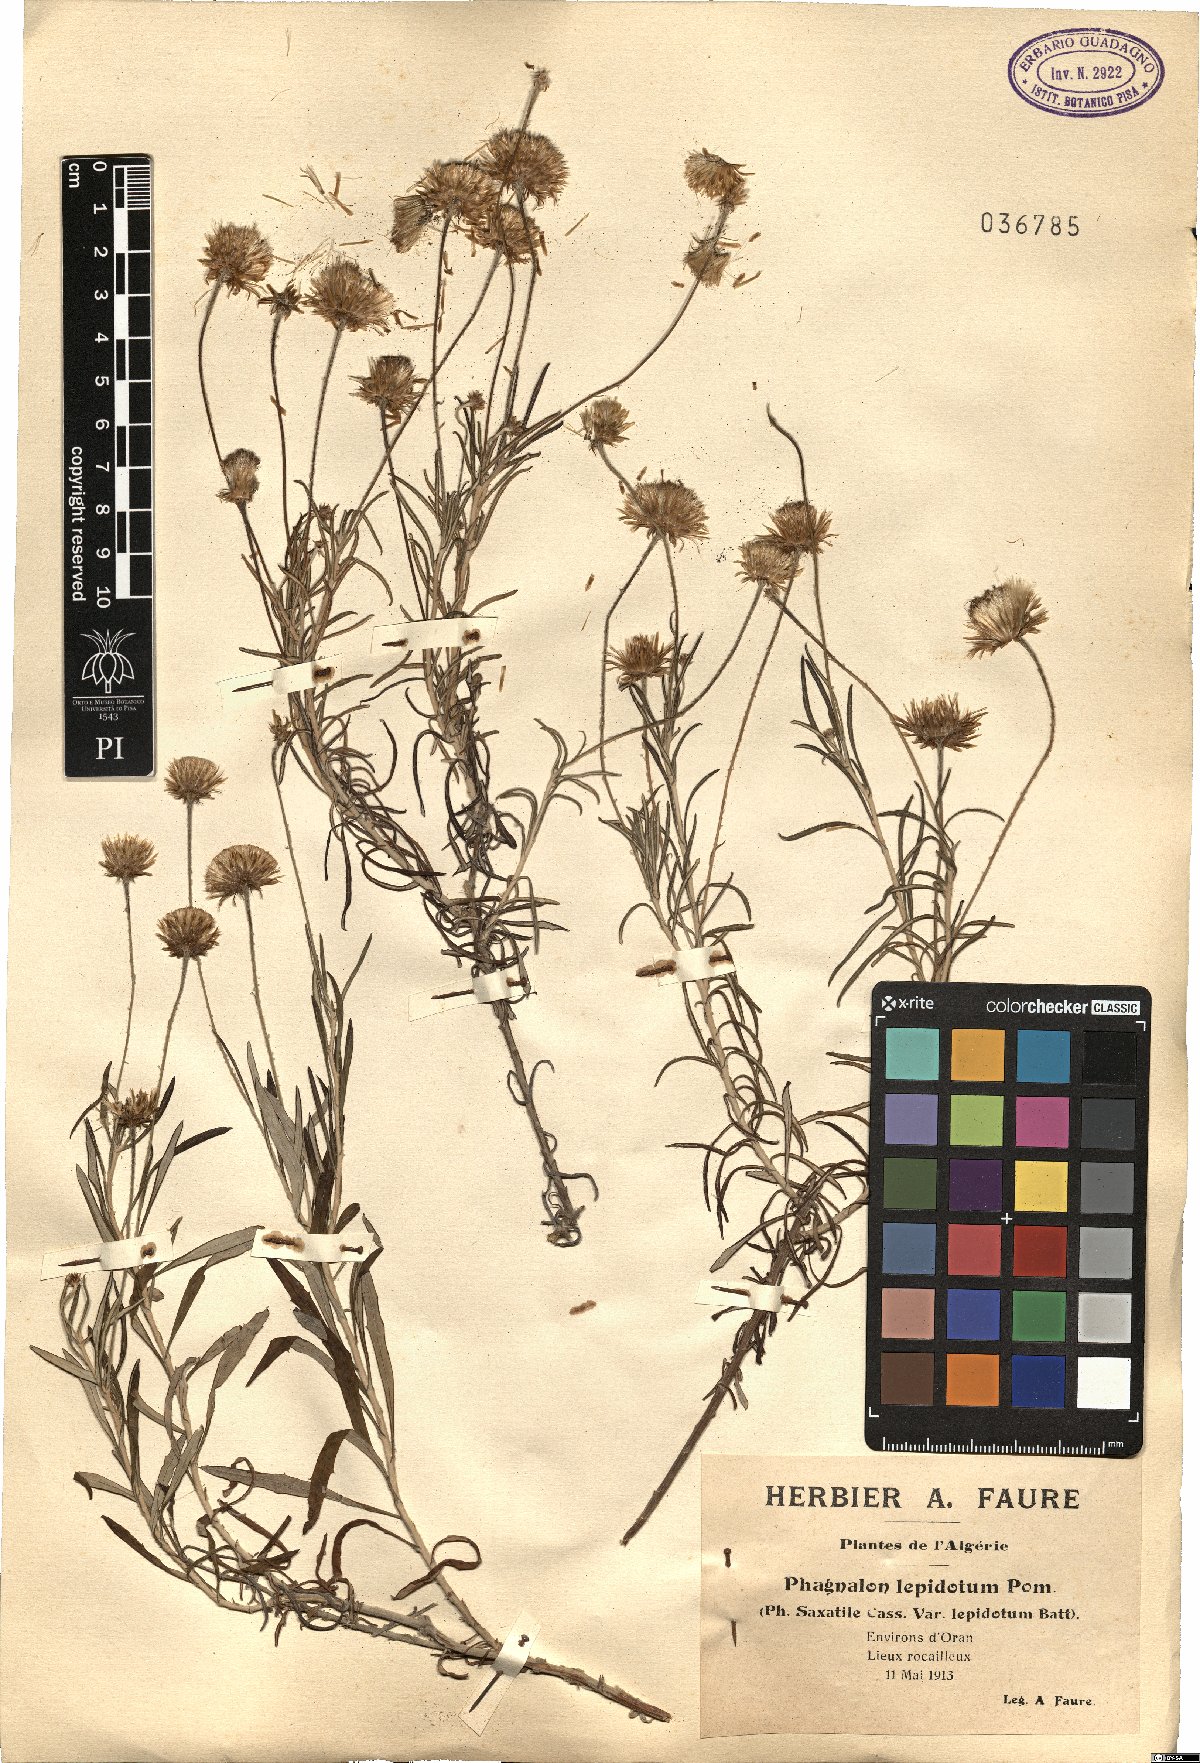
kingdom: Plantae
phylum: Tracheophyta
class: Magnoliopsida
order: Asterales
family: Asteraceae
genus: Phagnalon
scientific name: Phagnalon saxatile
